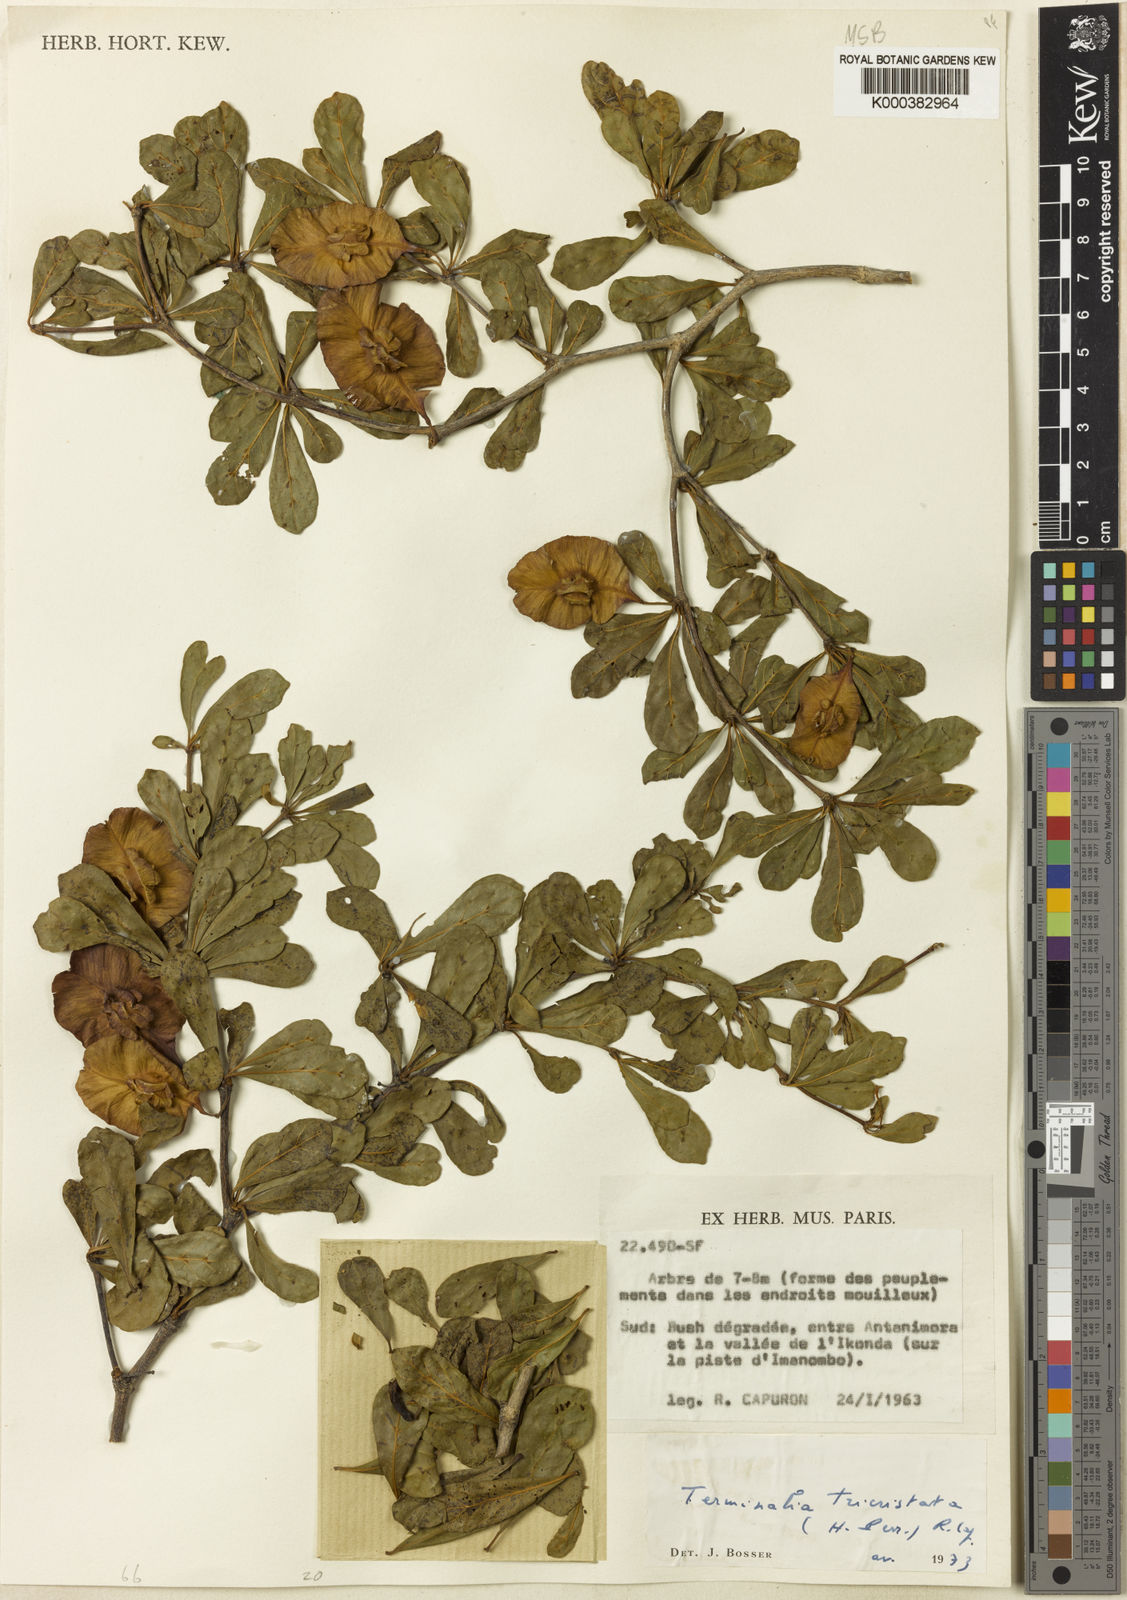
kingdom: Plantae
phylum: Tracheophyta
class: Magnoliopsida
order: Myrtales
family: Combretaceae
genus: Terminalia
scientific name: Terminalia tricristata
